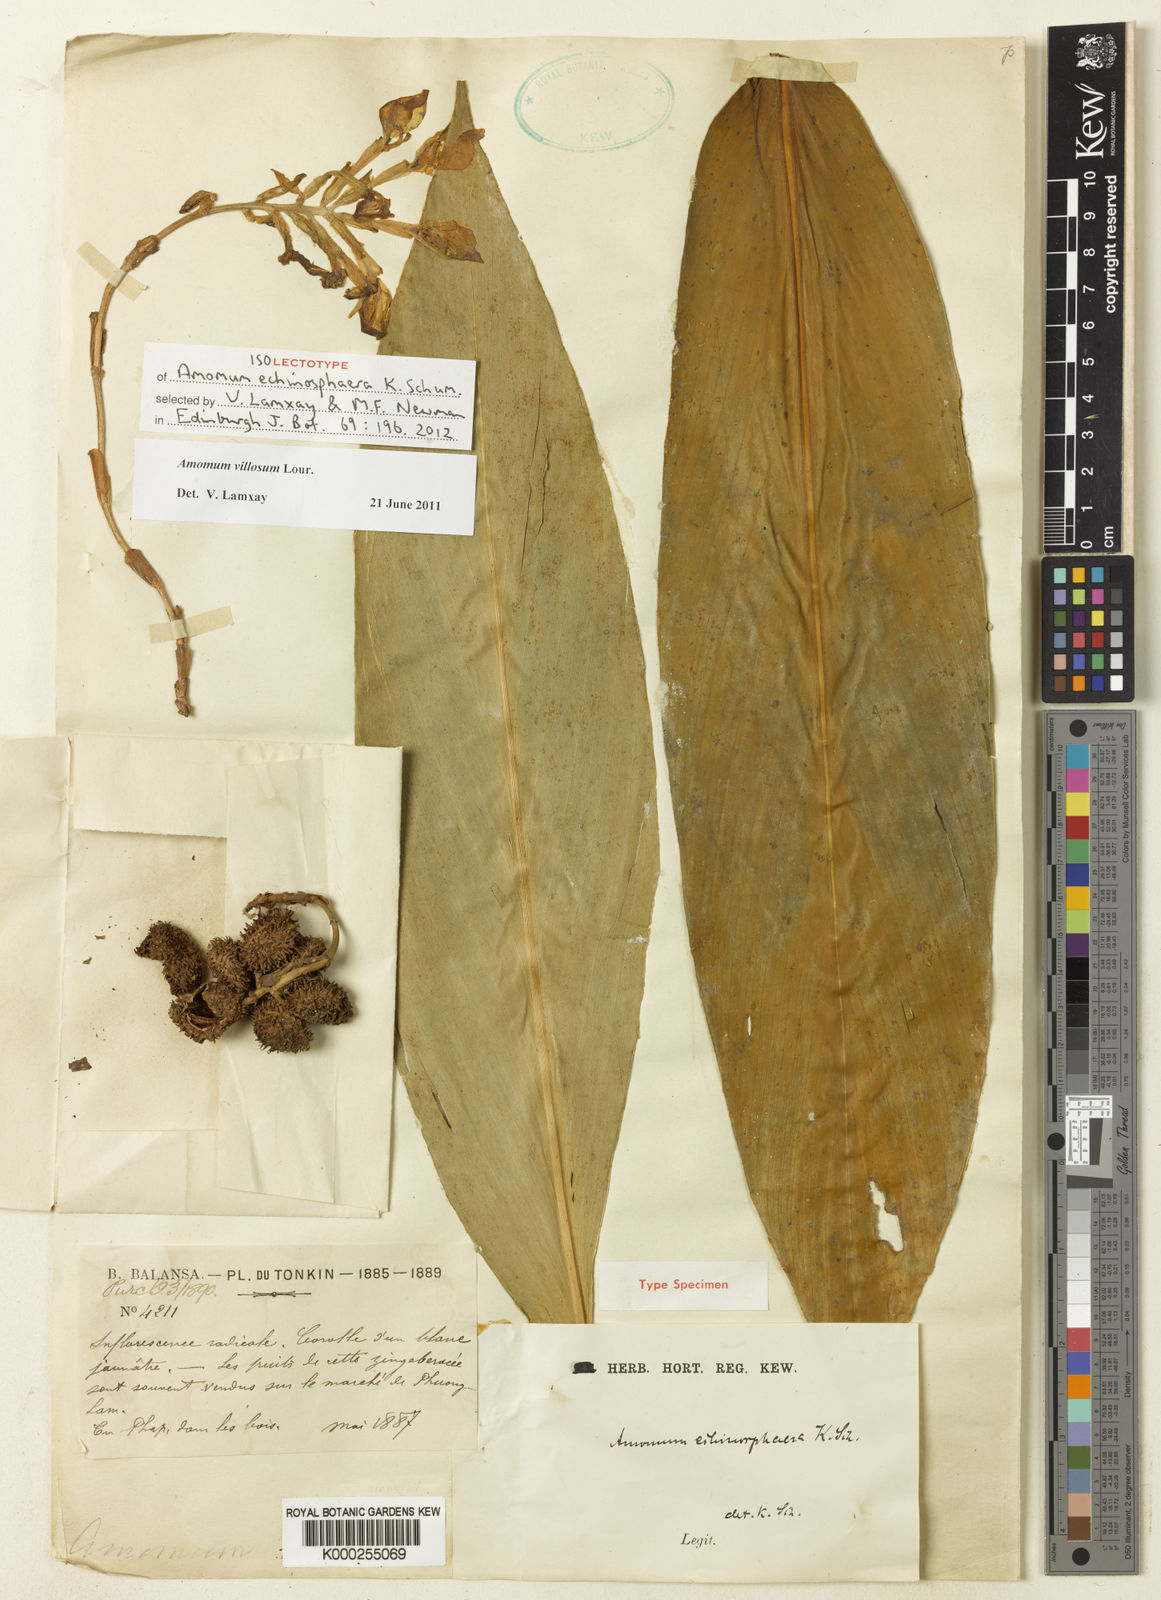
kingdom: Plantae
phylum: Tracheophyta
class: Liliopsida
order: Zingiberales
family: Zingiberaceae
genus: Wurfbainia
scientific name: Wurfbainia villosa
